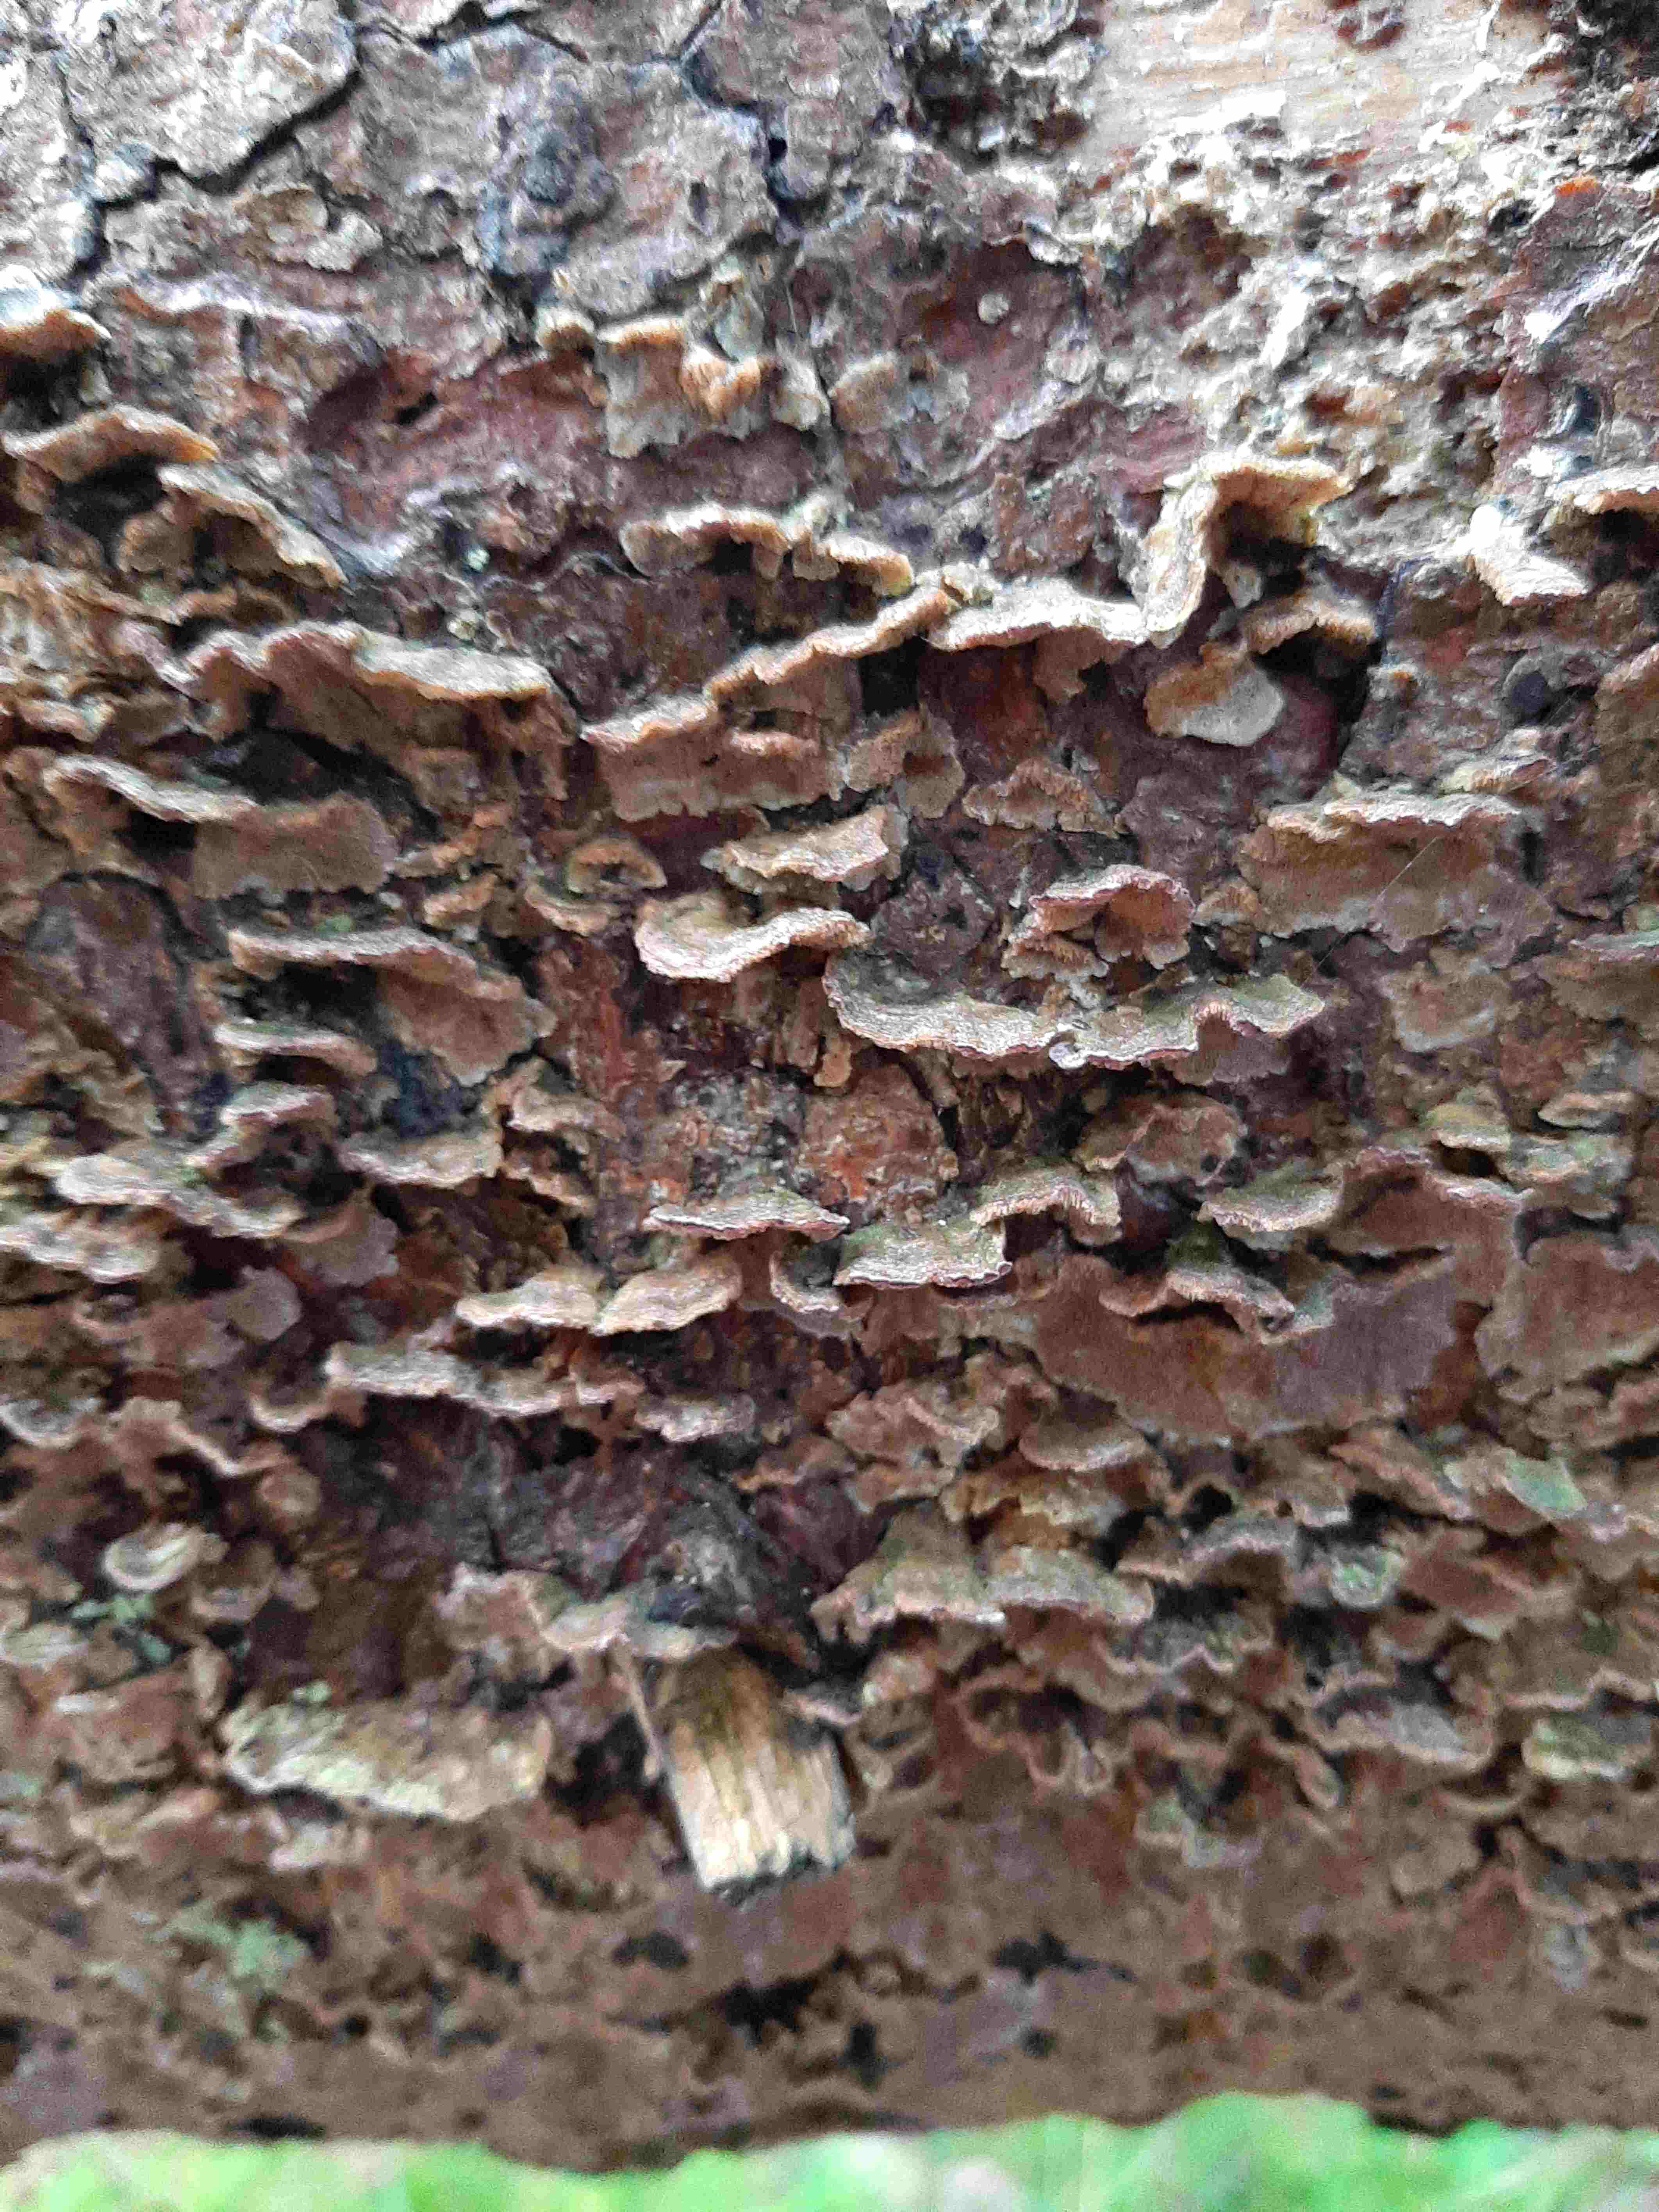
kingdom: Fungi
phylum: Basidiomycota
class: Agaricomycetes
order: Hymenochaetales
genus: Trichaptum
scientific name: Trichaptum abietinum
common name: almindelig violporesvamp
